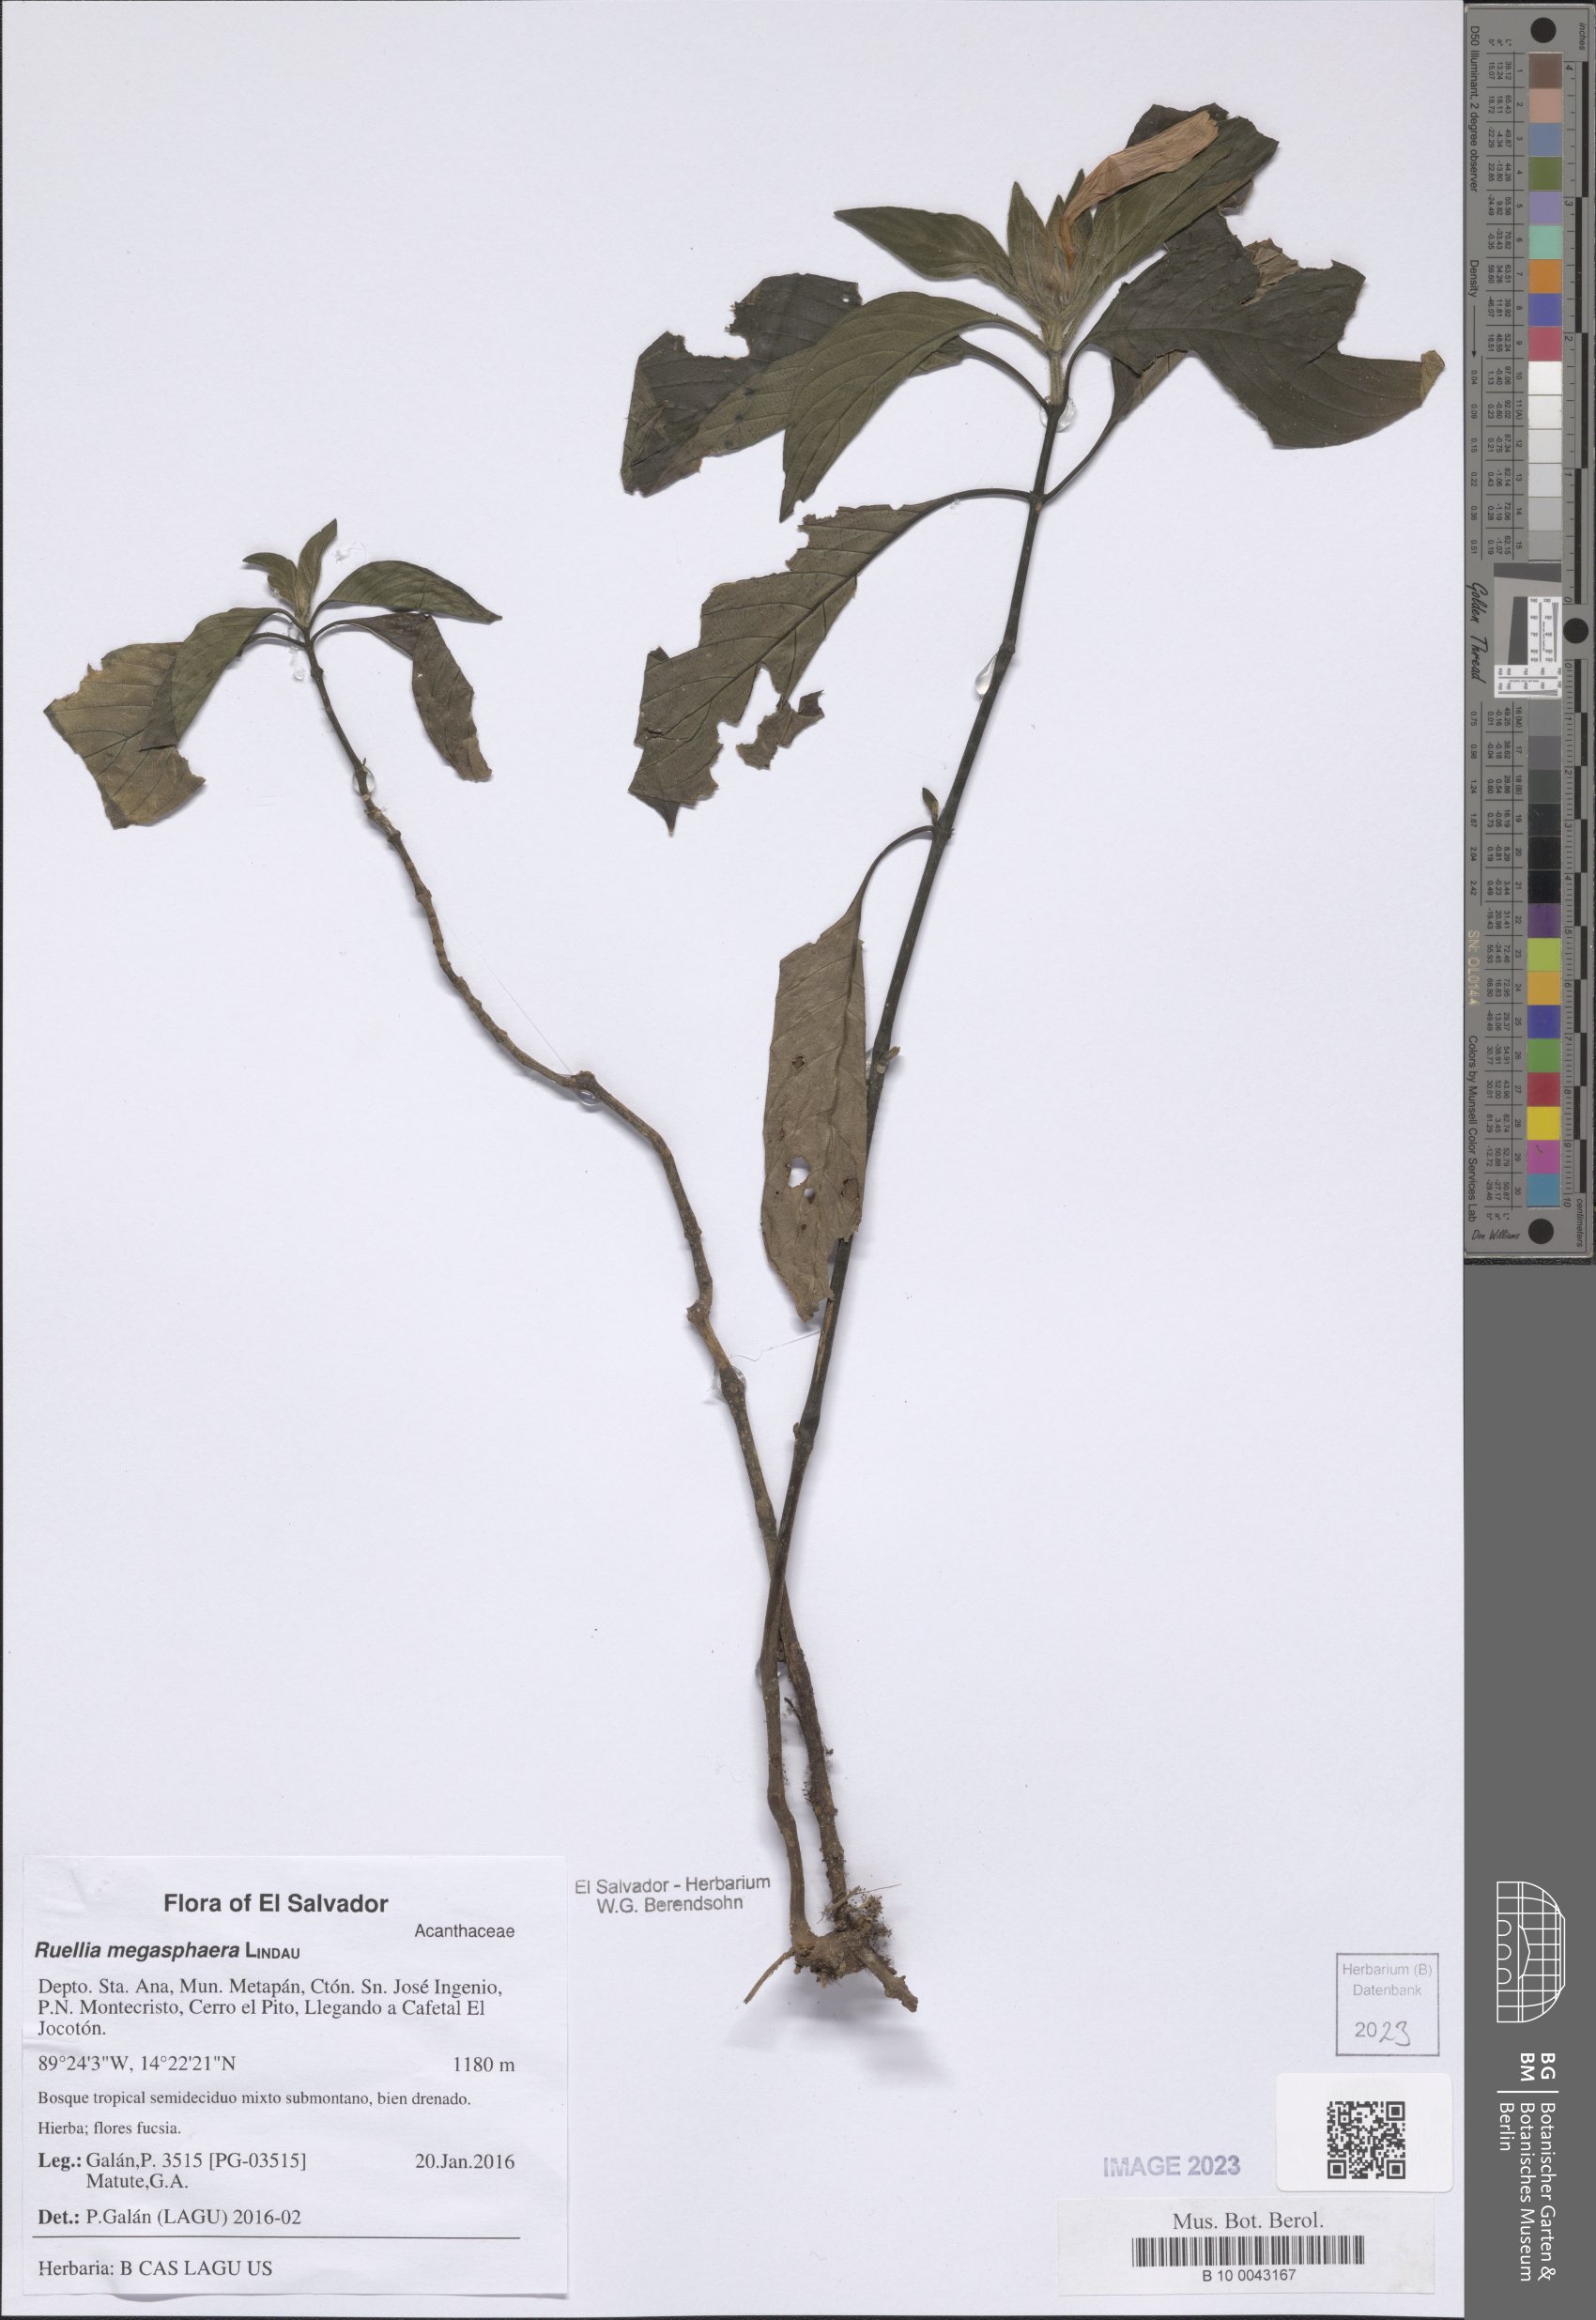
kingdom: Plantae
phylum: Tracheophyta
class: Magnoliopsida
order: Lamiales
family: Acanthaceae
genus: Ruellia
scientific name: Ruellia megasphaera
